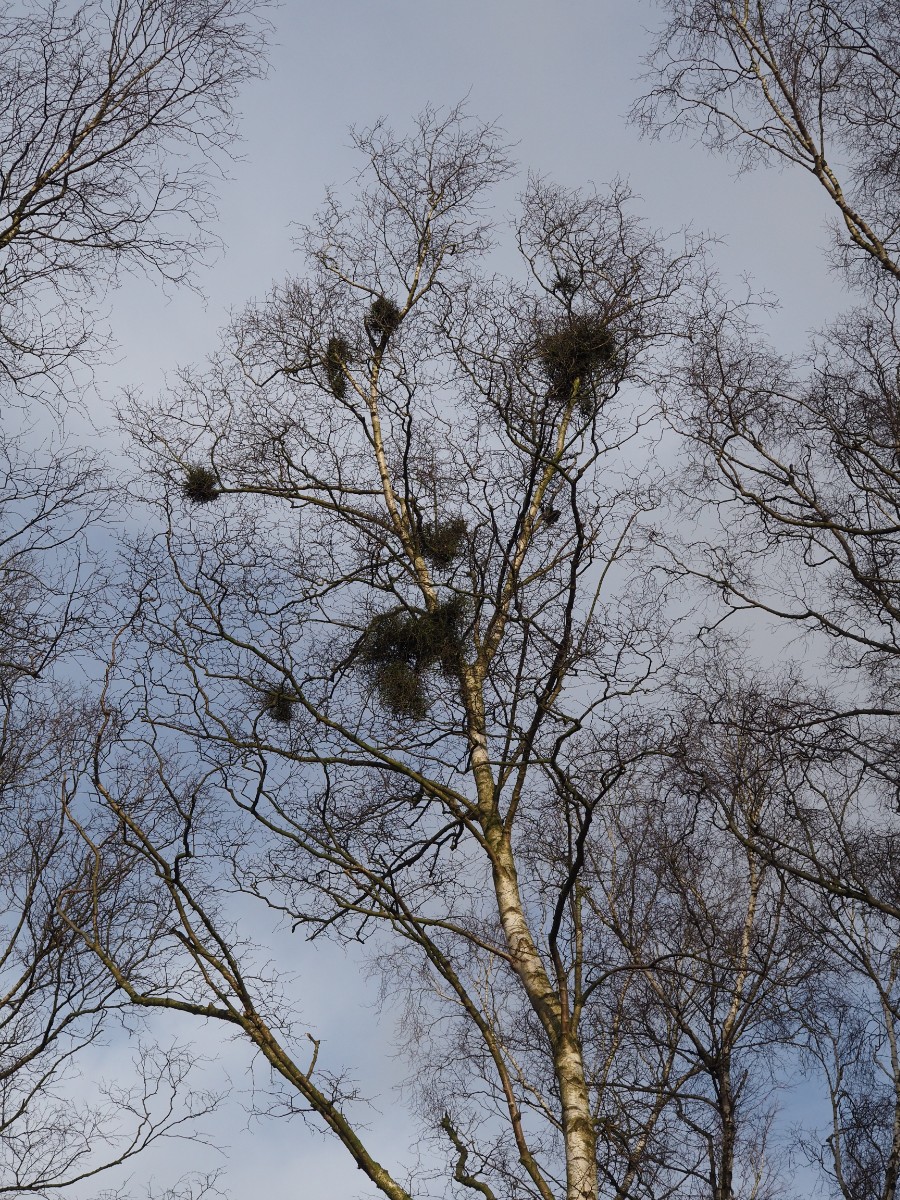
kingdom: Fungi
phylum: Ascomycota
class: Taphrinomycetes
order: Taphrinales
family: Taphrinaceae
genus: Taphrina
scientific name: Taphrina betulina
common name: hekse-sækdug
